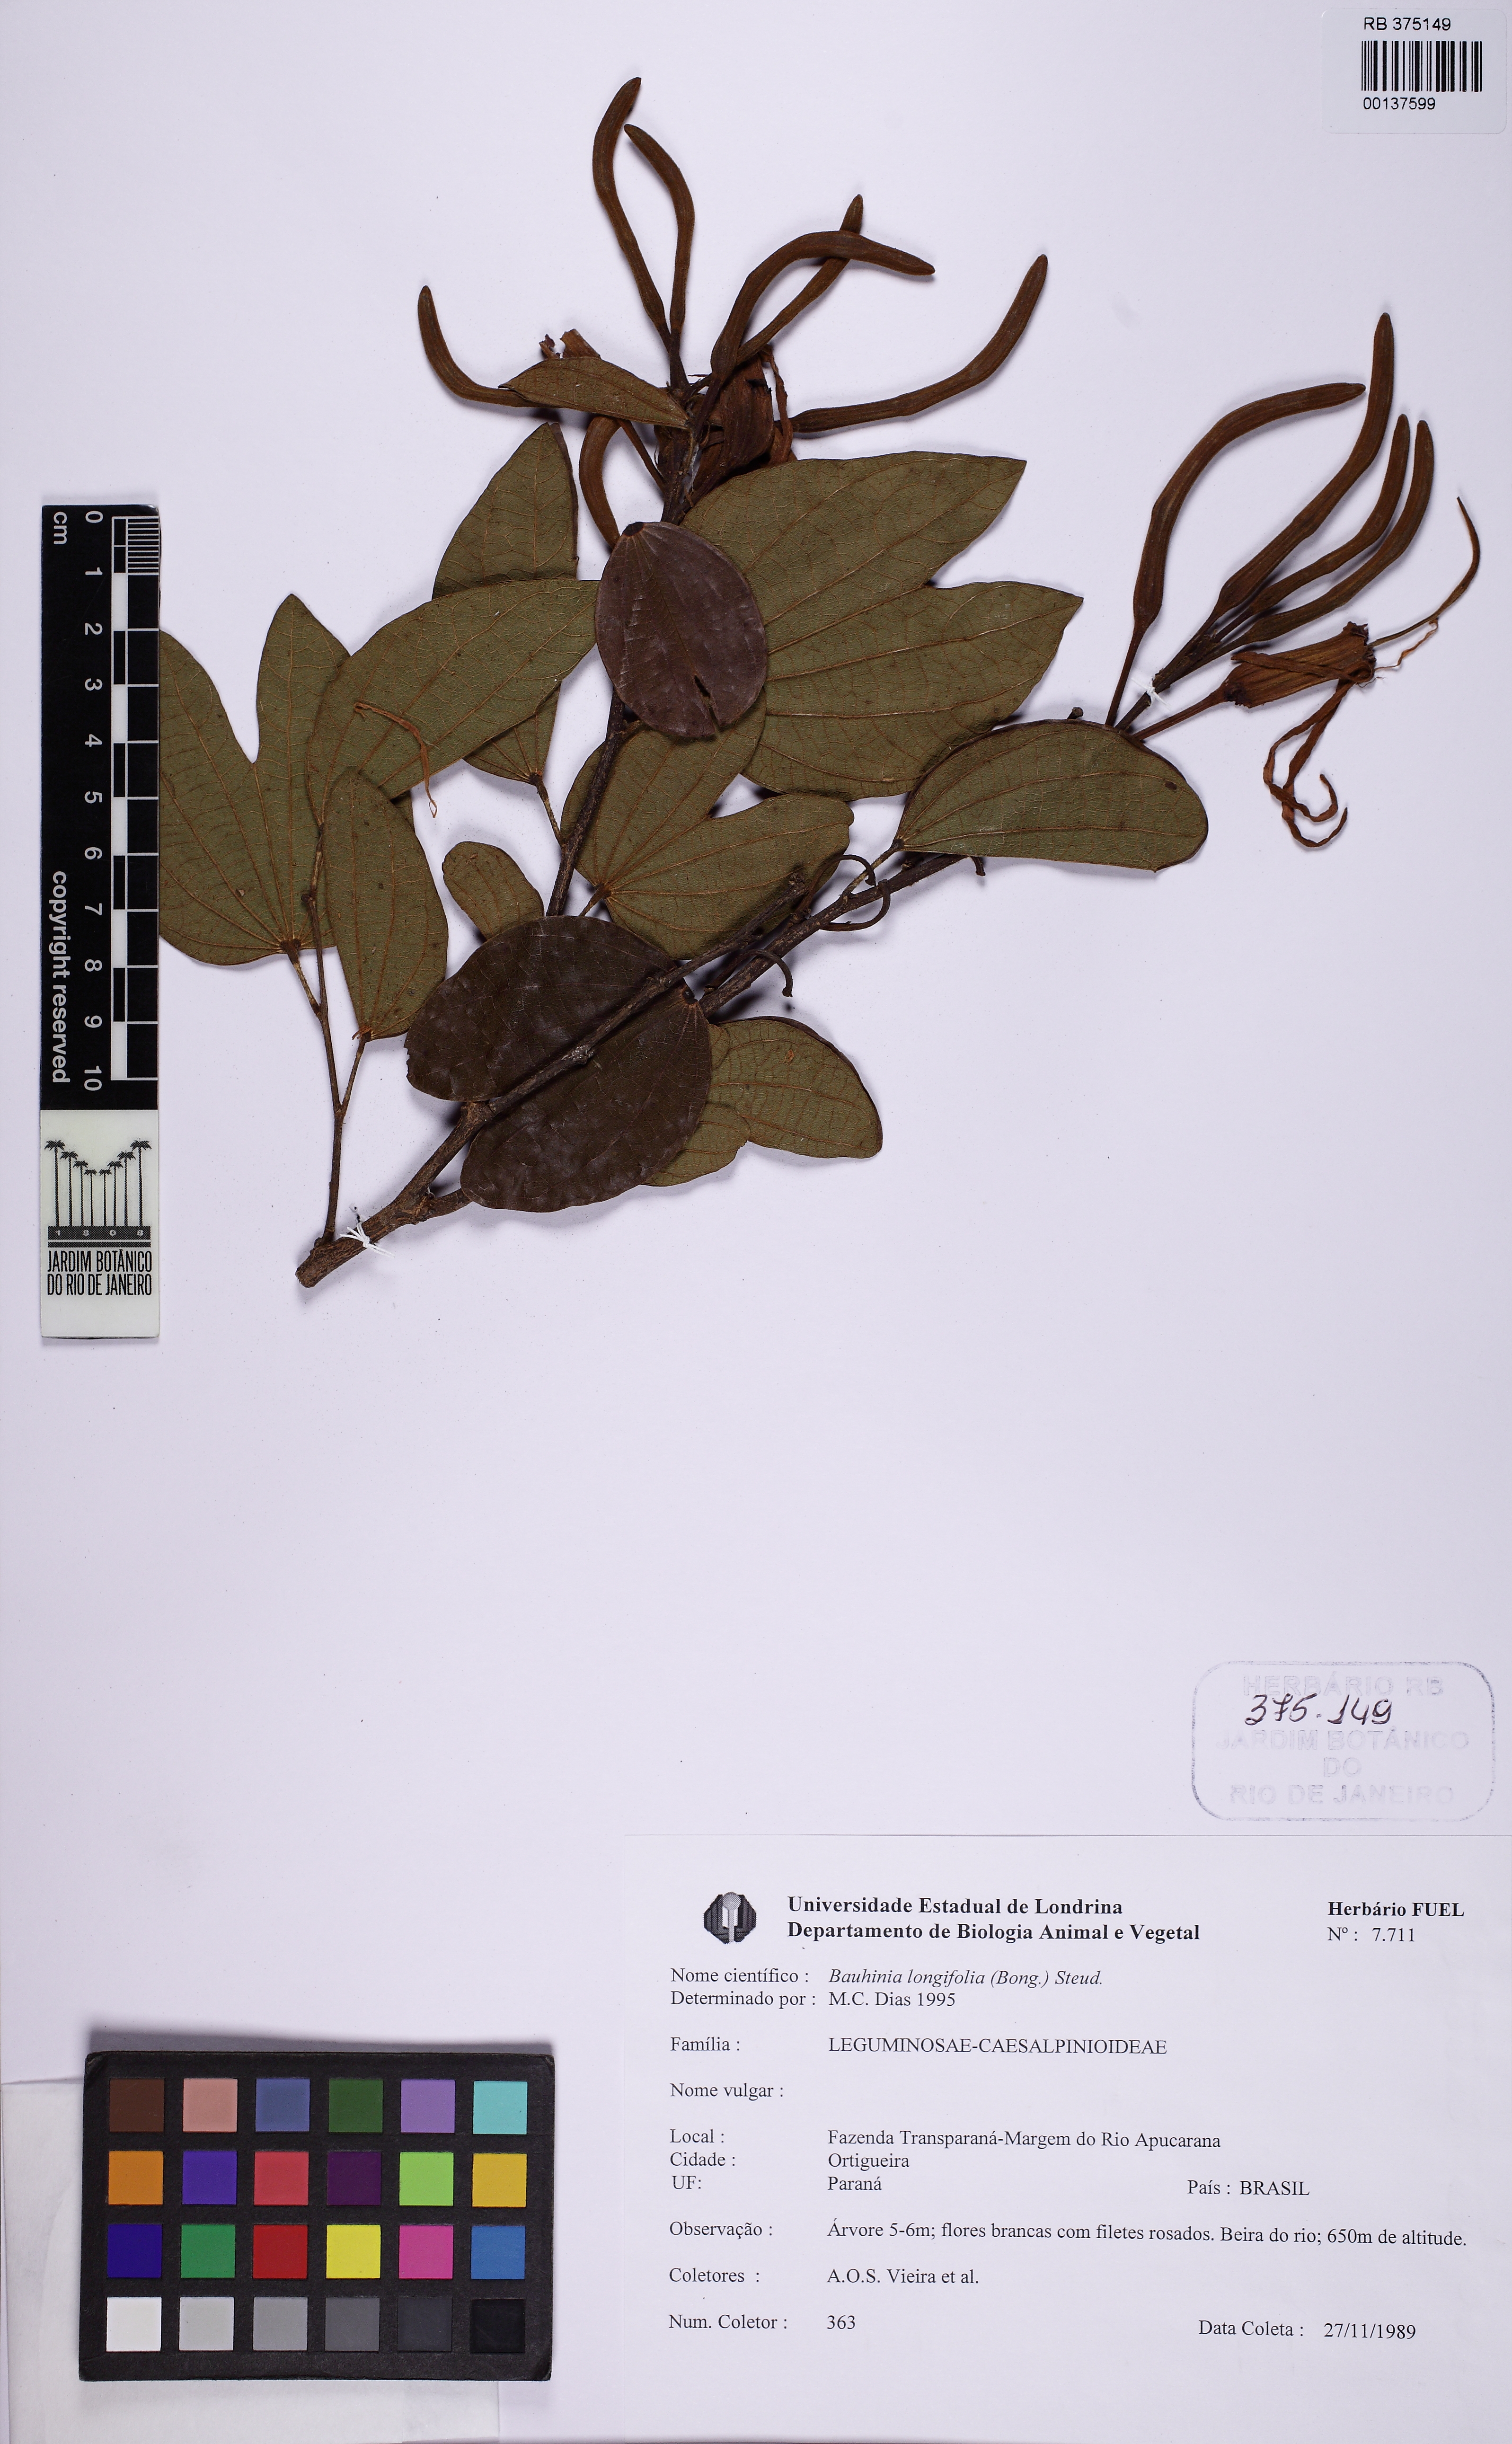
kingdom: Plantae
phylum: Tracheophyta
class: Magnoliopsida
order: Fabales
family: Fabaceae
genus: Bauhinia
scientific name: Bauhinia longifolia
